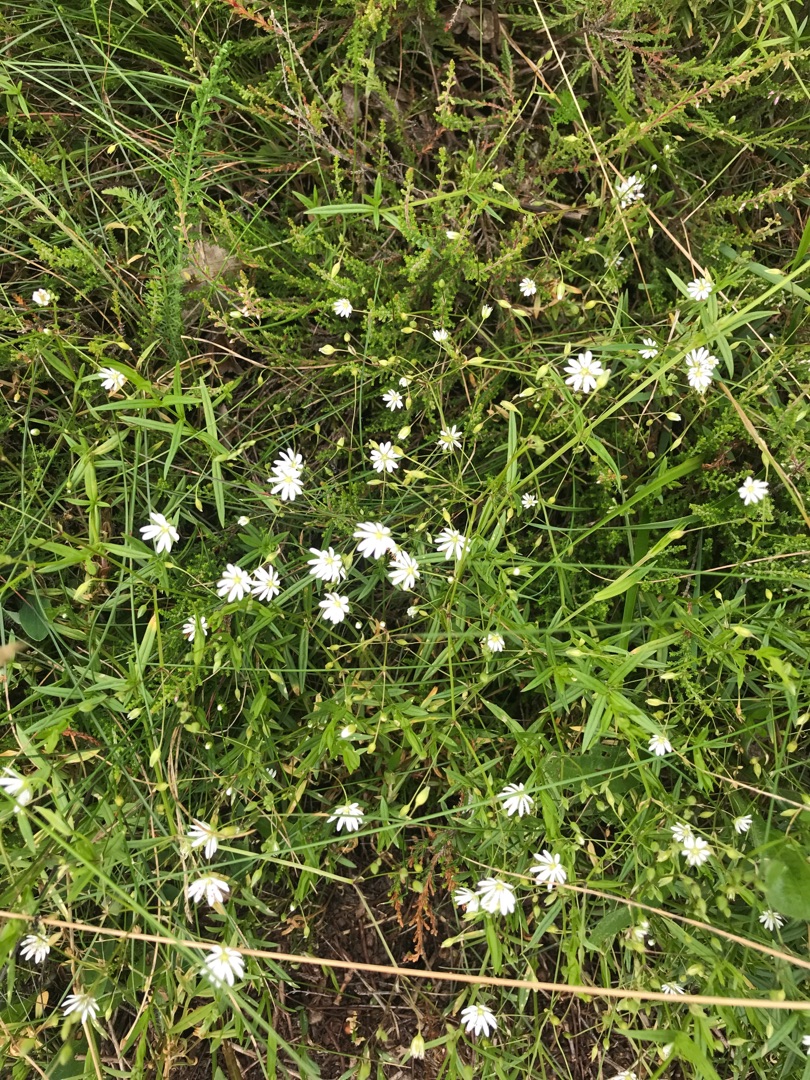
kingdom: Plantae
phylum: Tracheophyta
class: Magnoliopsida
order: Caryophyllales
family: Caryophyllaceae
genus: Stellaria
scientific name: Stellaria graminea
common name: Græsbladet fladstjerne
